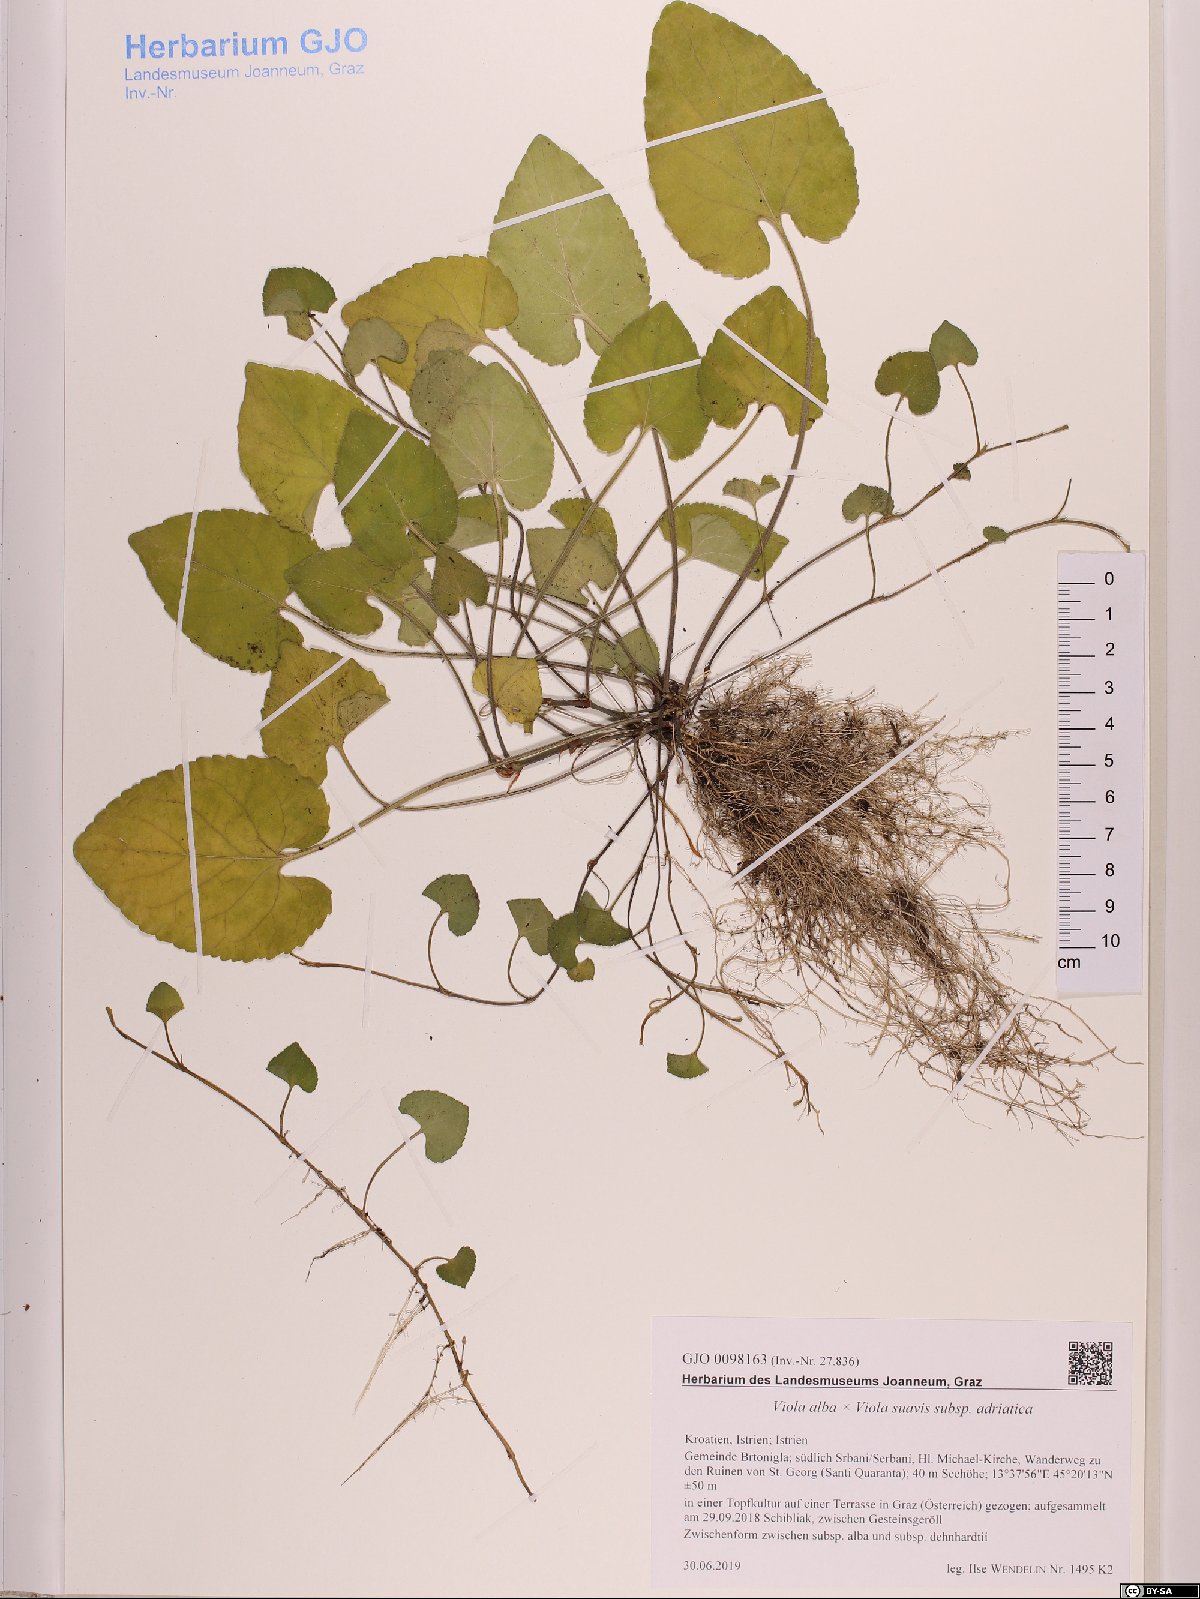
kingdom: Plantae
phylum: Tracheophyta
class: Magnoliopsida
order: Malpighiales
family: Violaceae
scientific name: Violaceae
